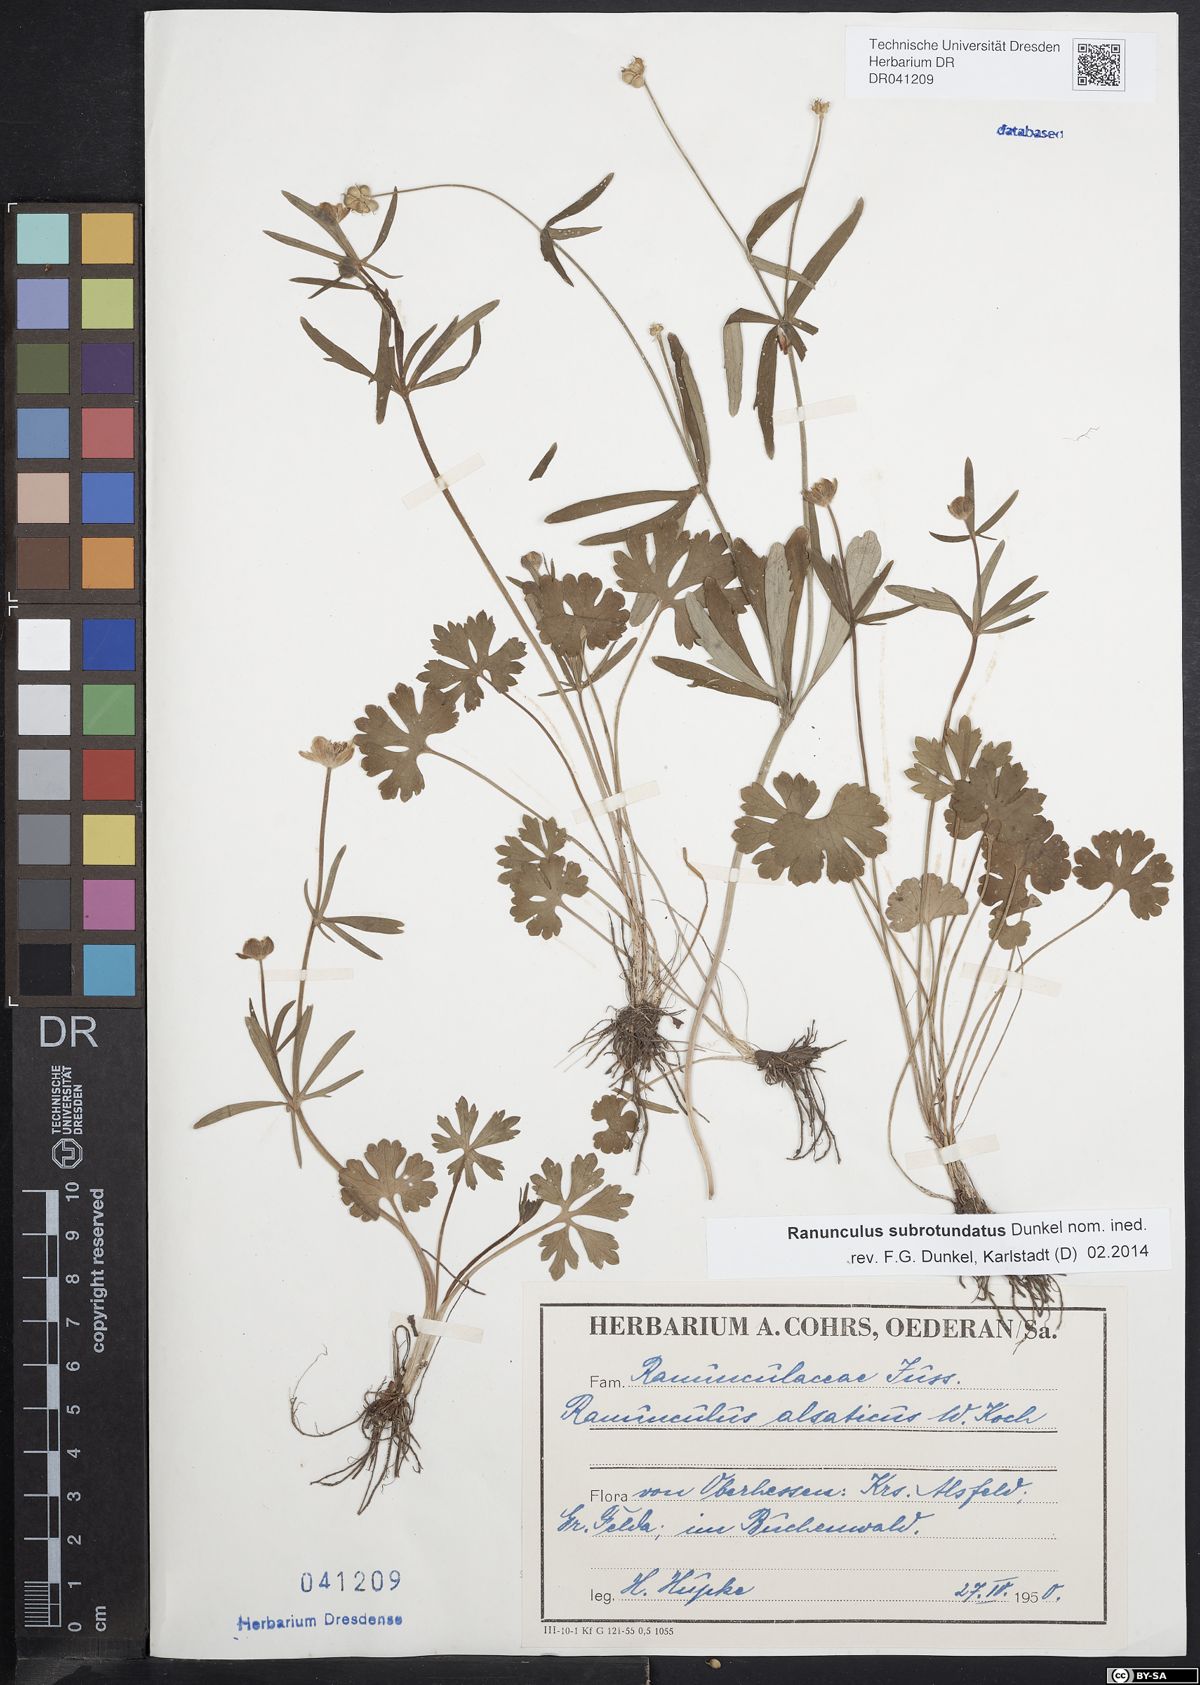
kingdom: Plantae
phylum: Tracheophyta
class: Magnoliopsida
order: Ranunculales
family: Ranunculaceae
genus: Ranunculus
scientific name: Ranunculus auricomus
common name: Goldilocks buttercup
